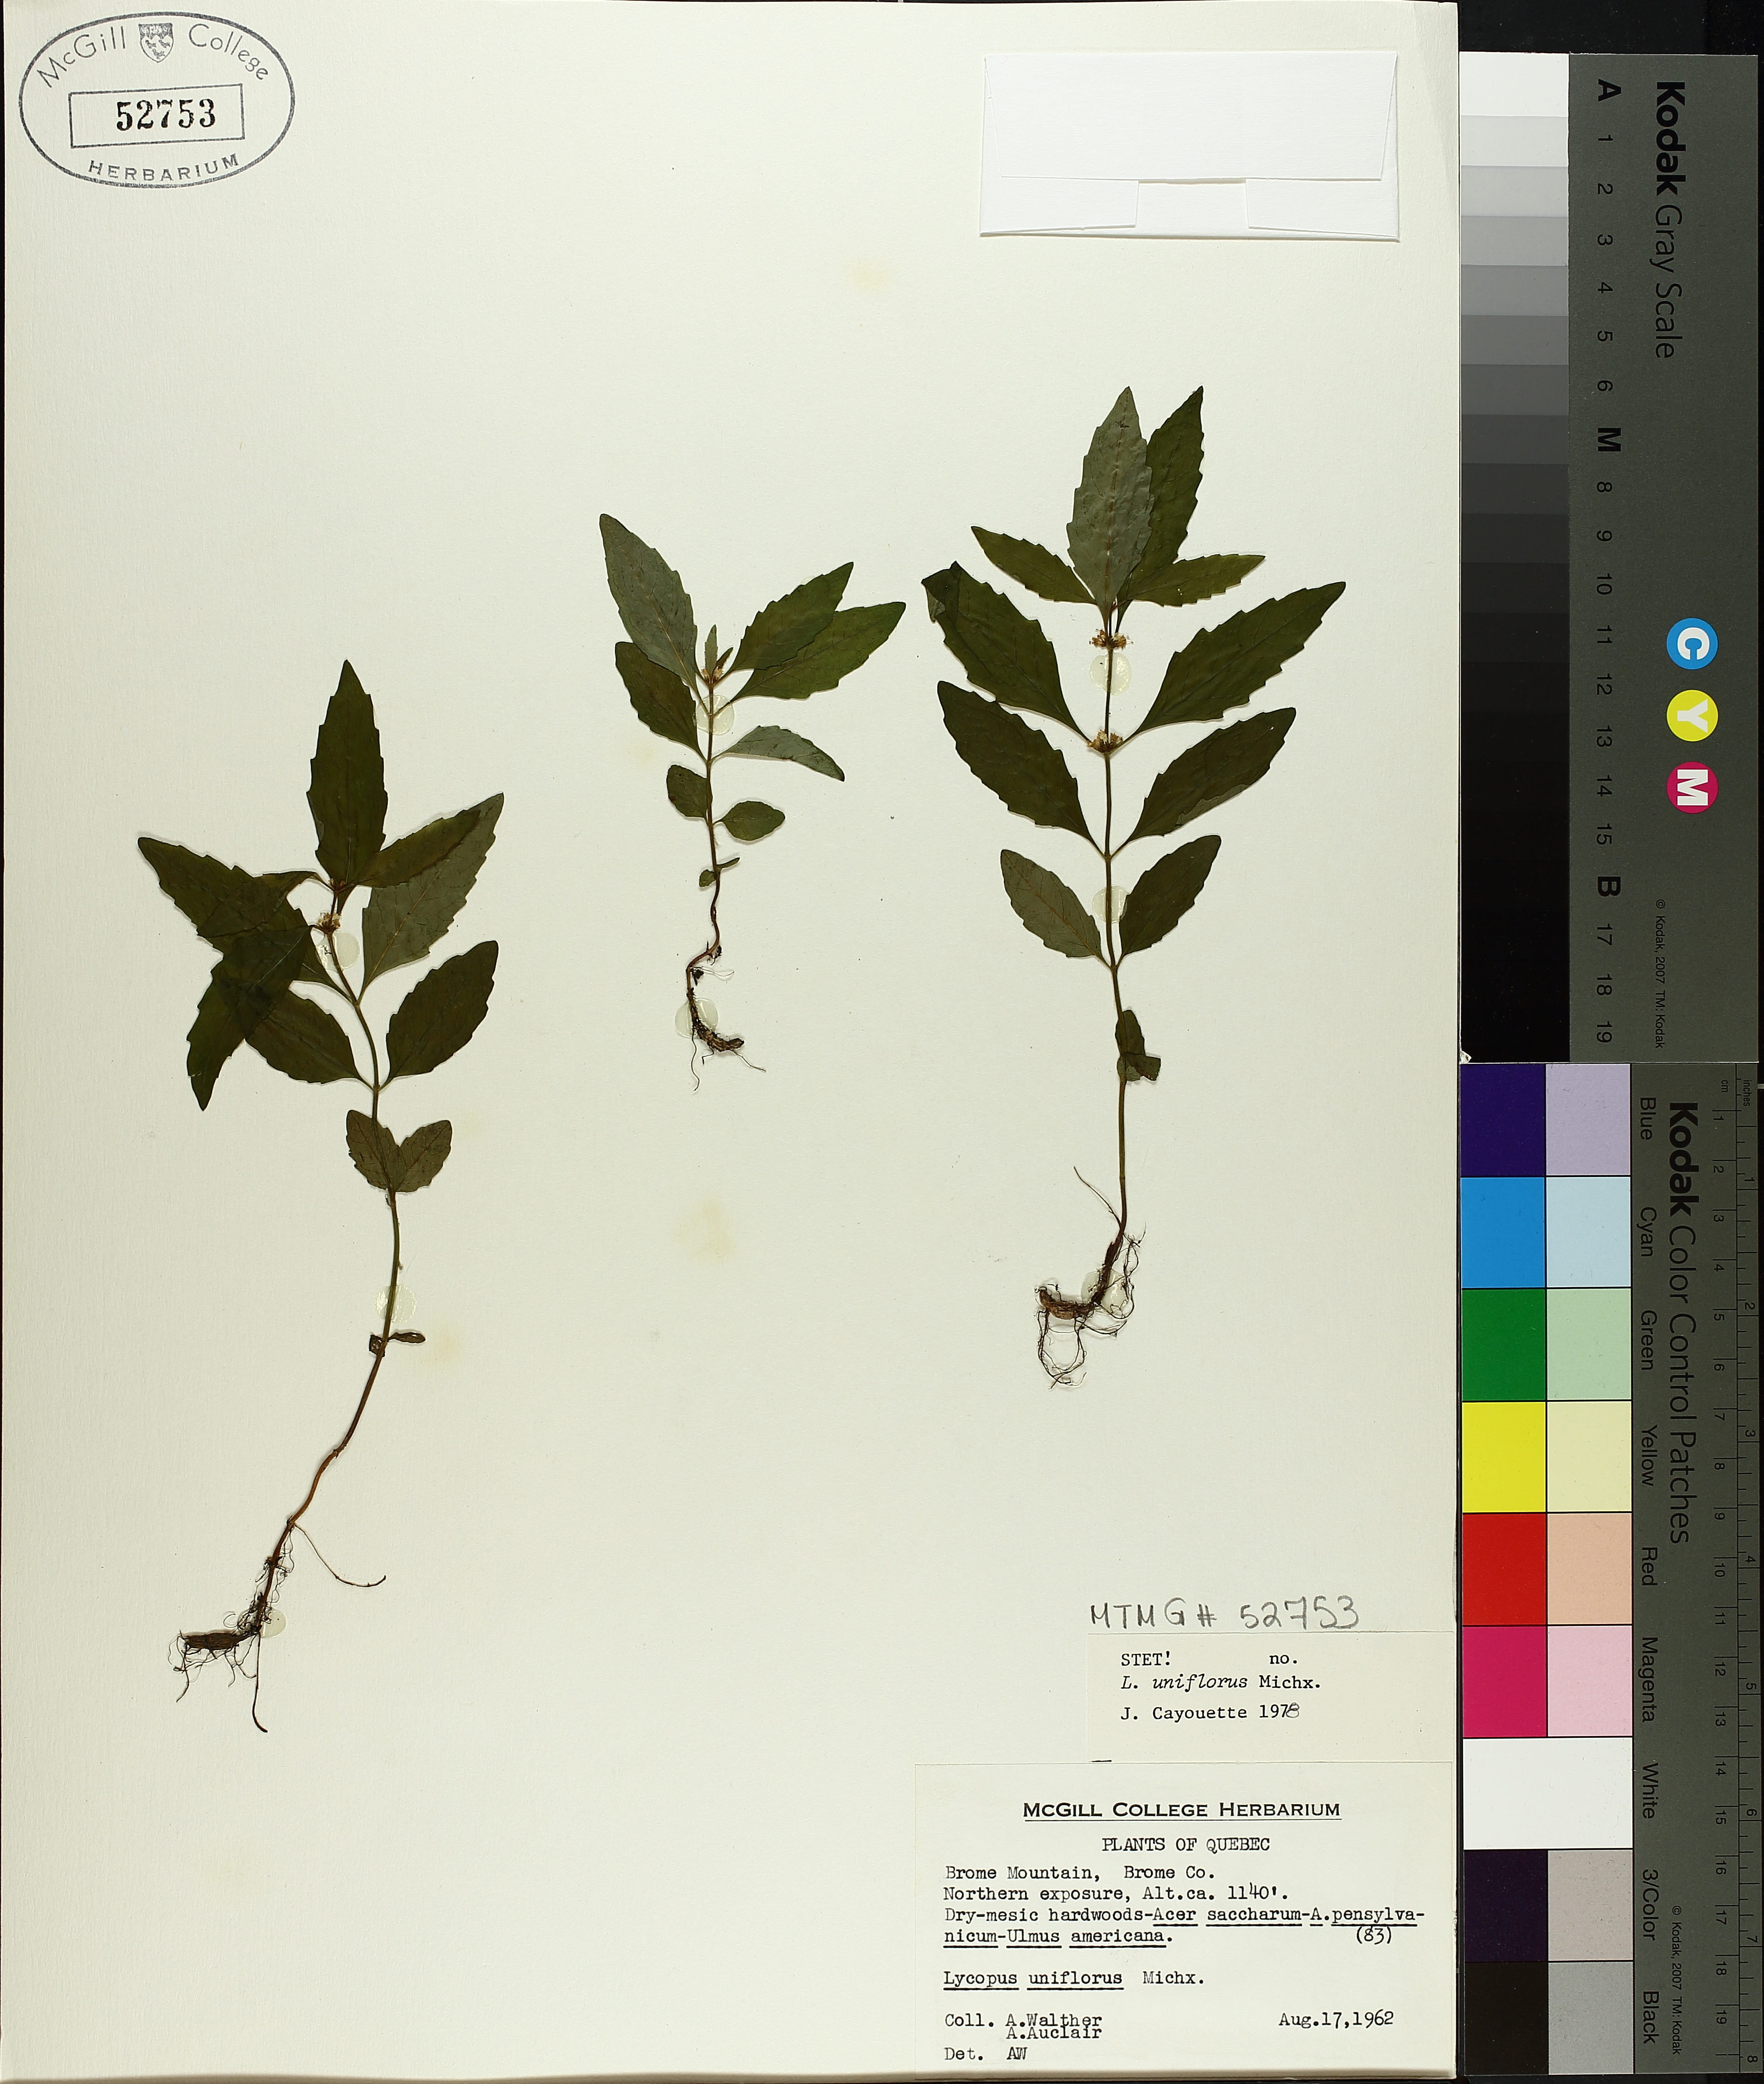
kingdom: Plantae
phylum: Tracheophyta
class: Magnoliopsida
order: Lamiales
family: Lamiaceae
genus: Lycopus
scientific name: Lycopus uniflorus
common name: Northern bugleweed
